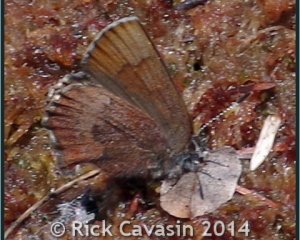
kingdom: Animalia
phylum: Arthropoda
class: Insecta
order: Lepidoptera
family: Lycaenidae
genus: Incisalia
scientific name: Incisalia irioides
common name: Brown Elfin
